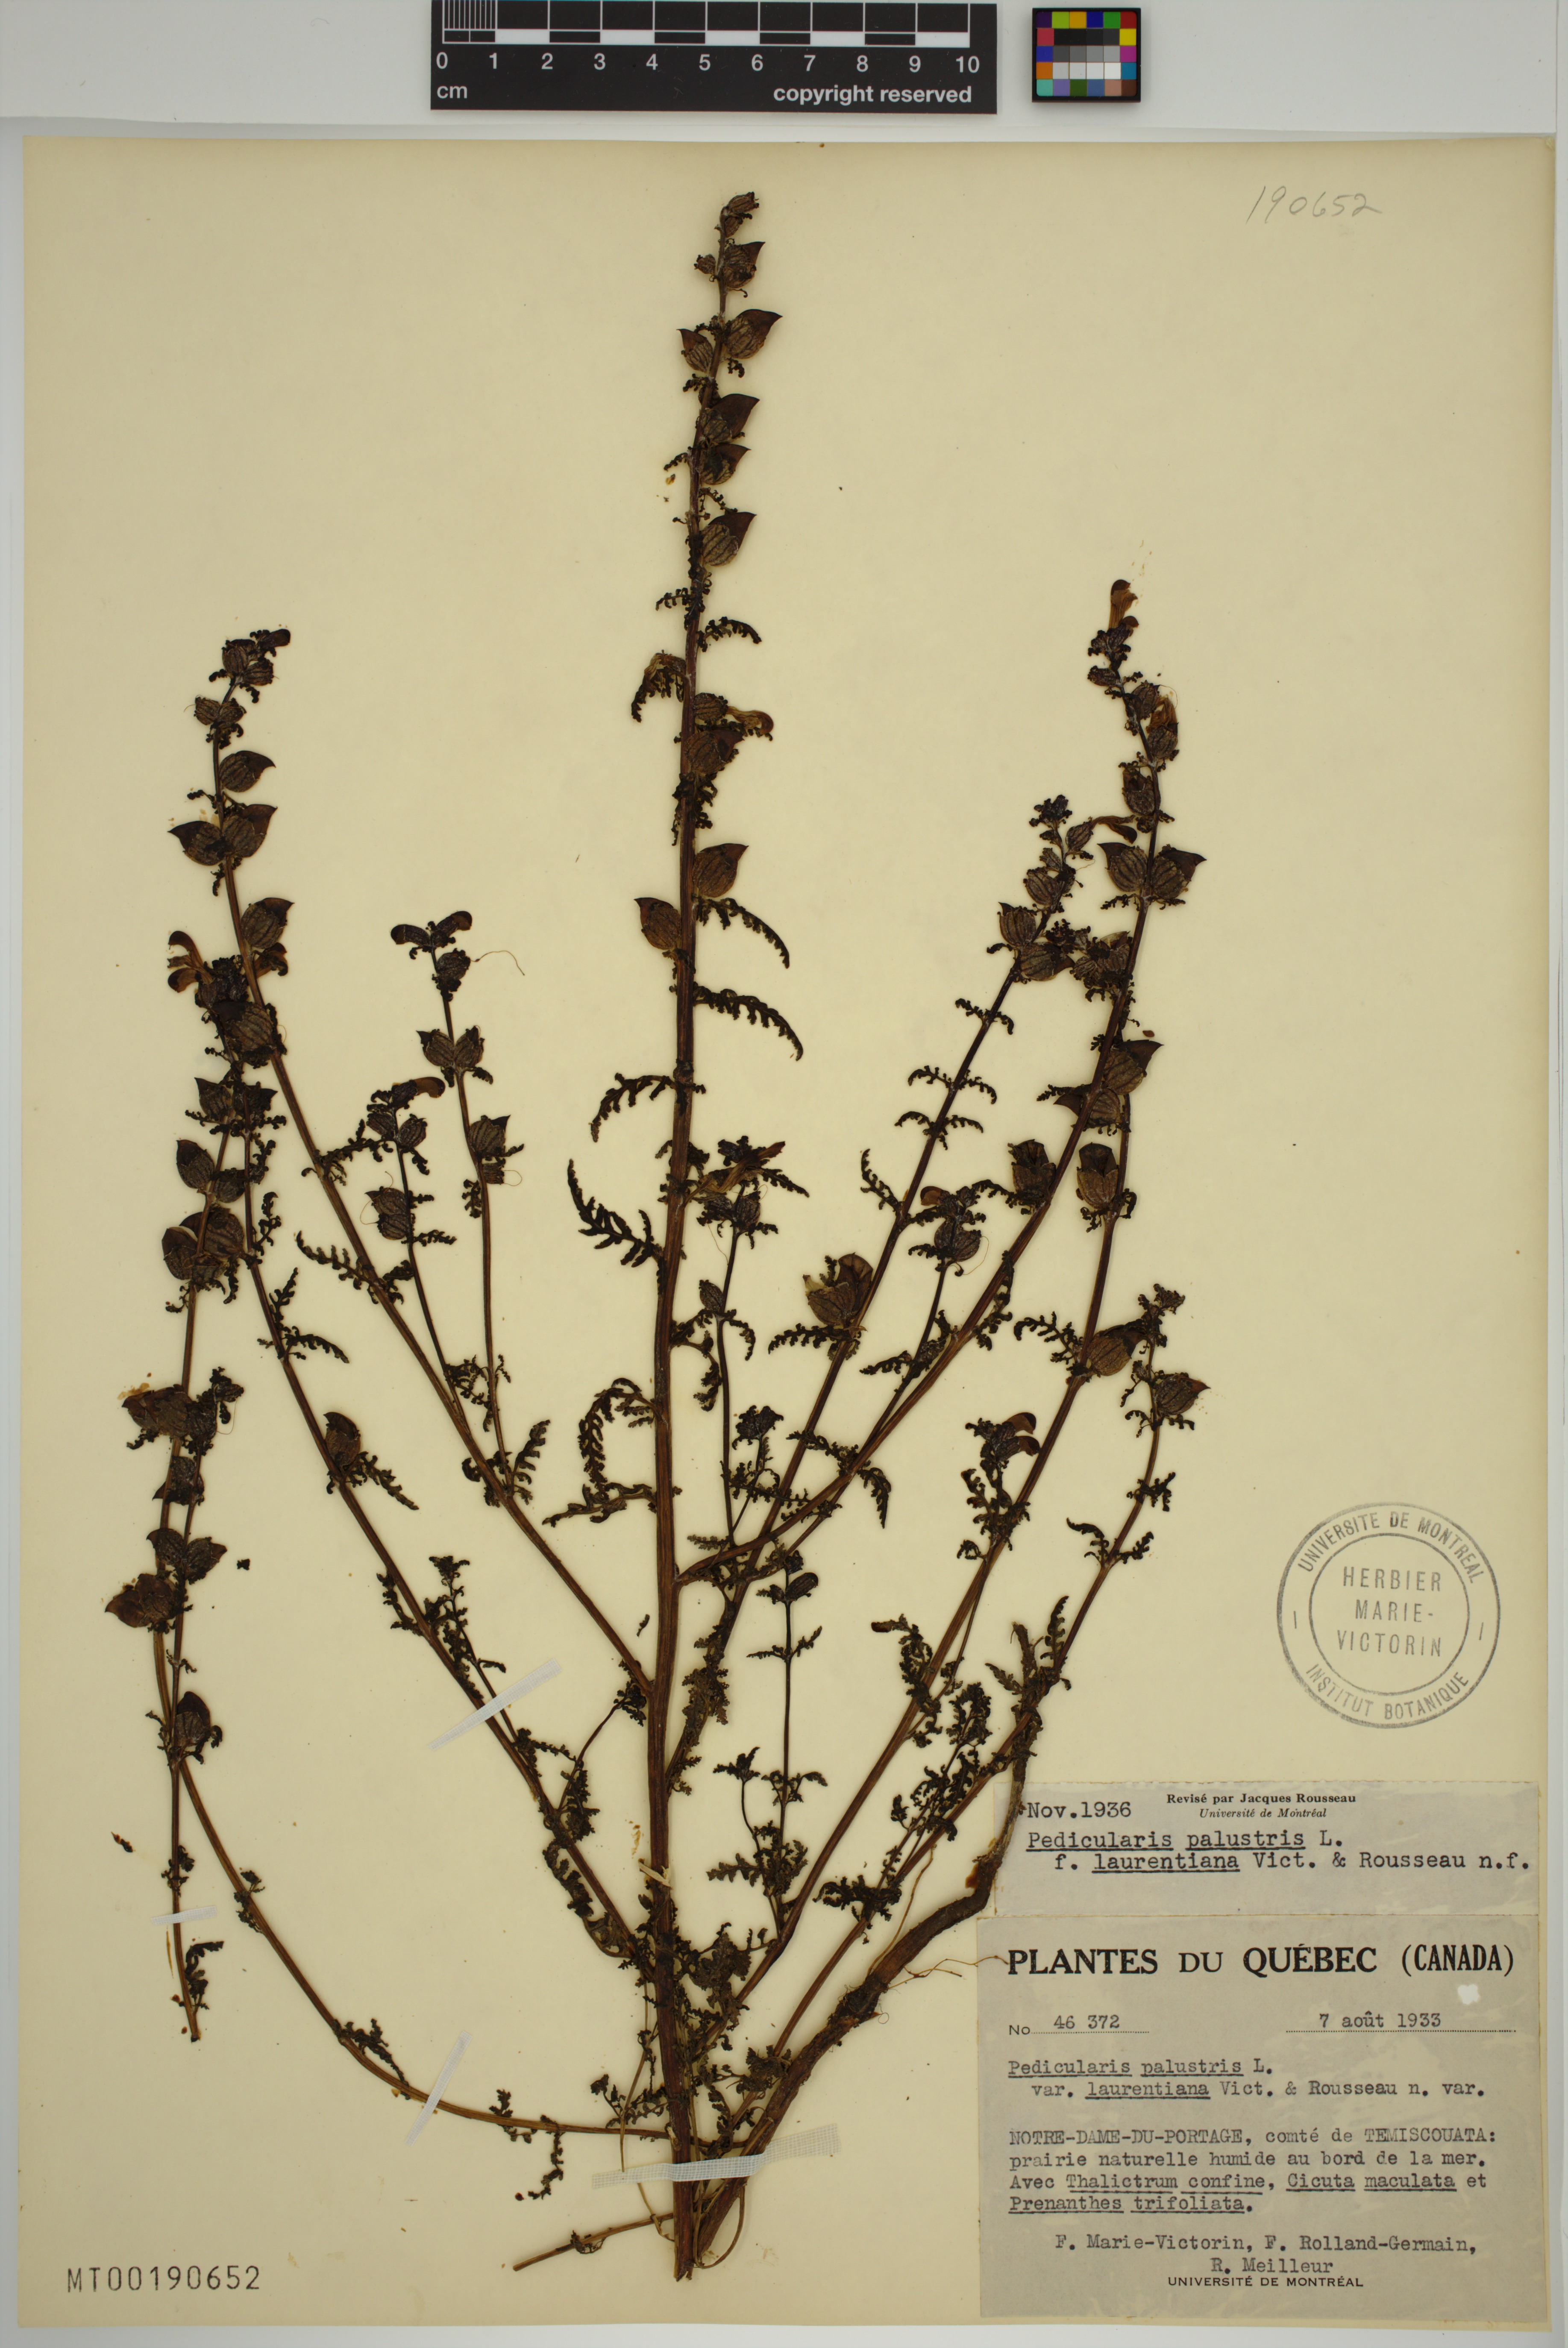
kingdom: Plantae
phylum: Tracheophyta
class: Magnoliopsida
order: Lamiales
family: Orobanchaceae
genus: Pedicularis
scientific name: Pedicularis palustris
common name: Marsh lousewort
